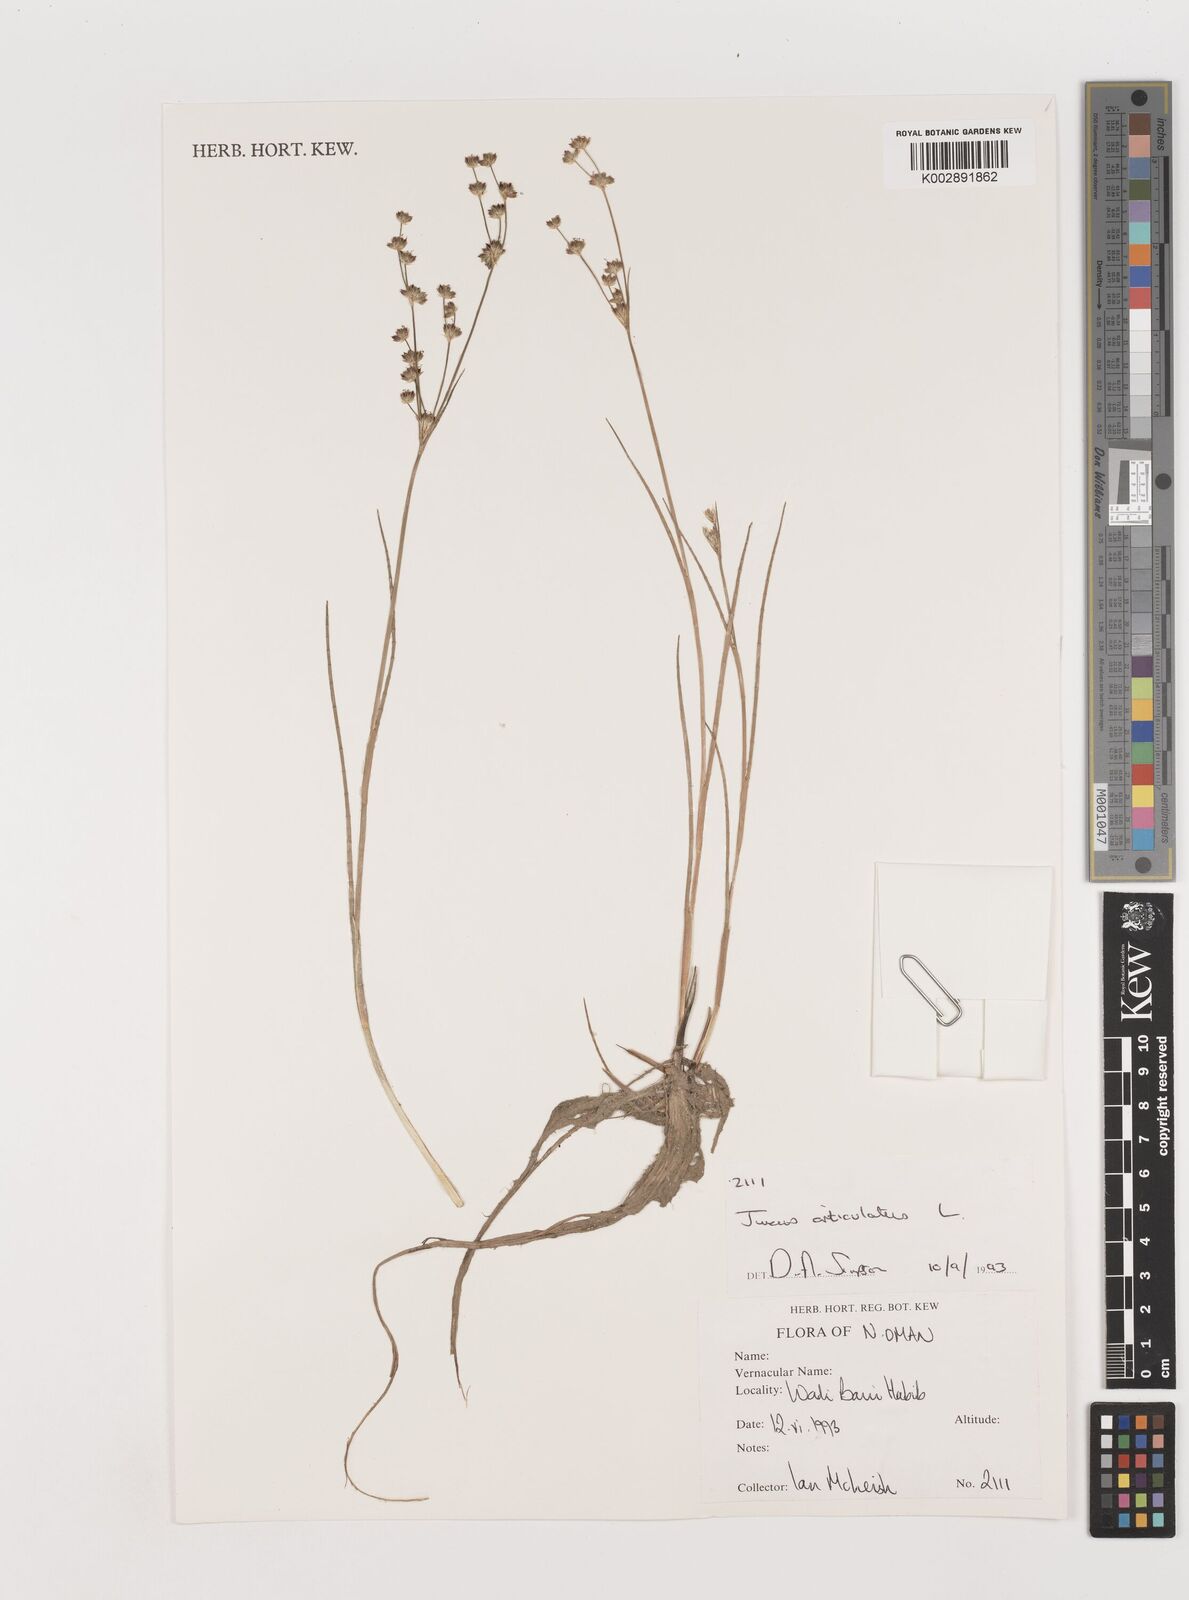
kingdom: Plantae
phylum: Tracheophyta
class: Liliopsida
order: Poales
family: Juncaceae
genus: Juncus
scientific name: Juncus articulatus
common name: Jointed rush
